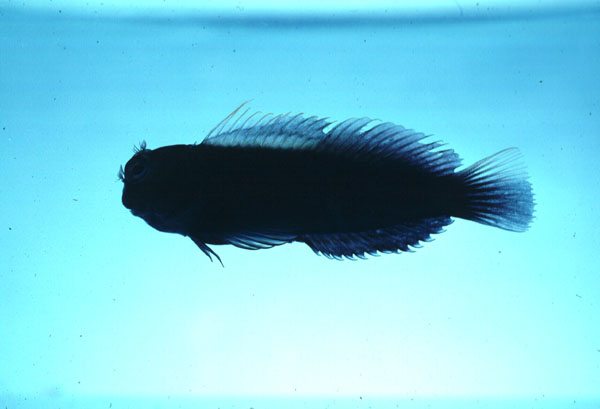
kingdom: Animalia
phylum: Chordata
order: Perciformes
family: Blenniidae
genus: Cirripectes
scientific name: Cirripectes randalli
